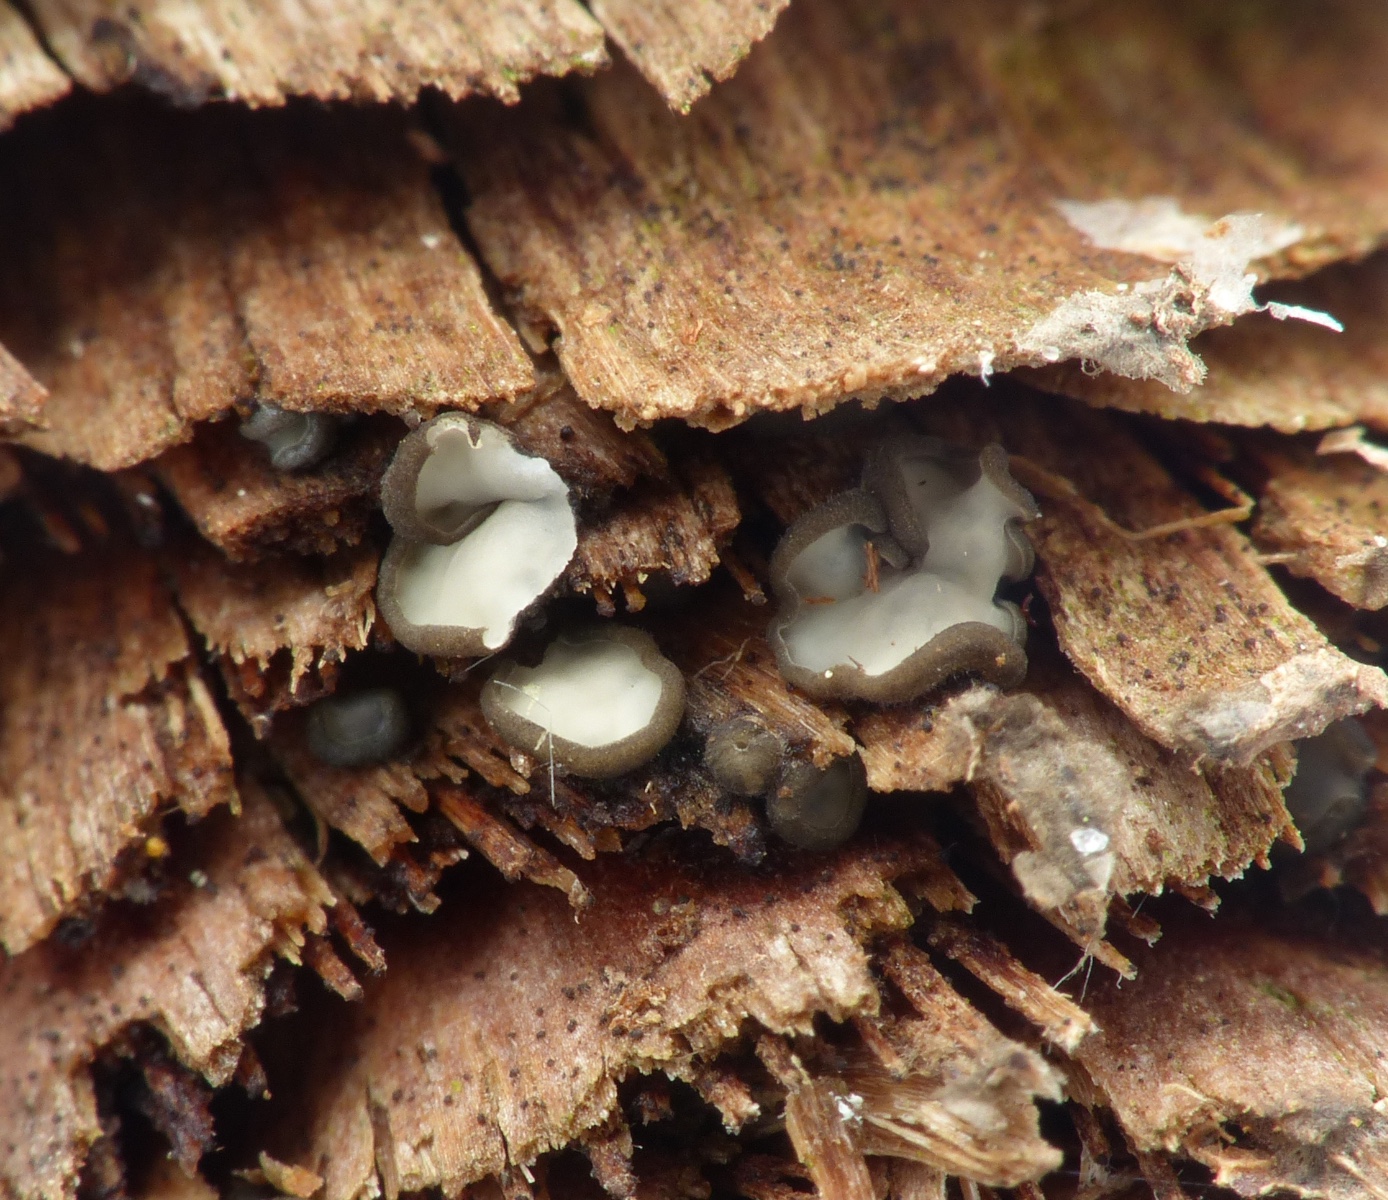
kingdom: Fungi
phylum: Ascomycota
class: Leotiomycetes
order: Helotiales
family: Mollisiaceae
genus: Mollisia
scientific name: Mollisia
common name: gråskive
